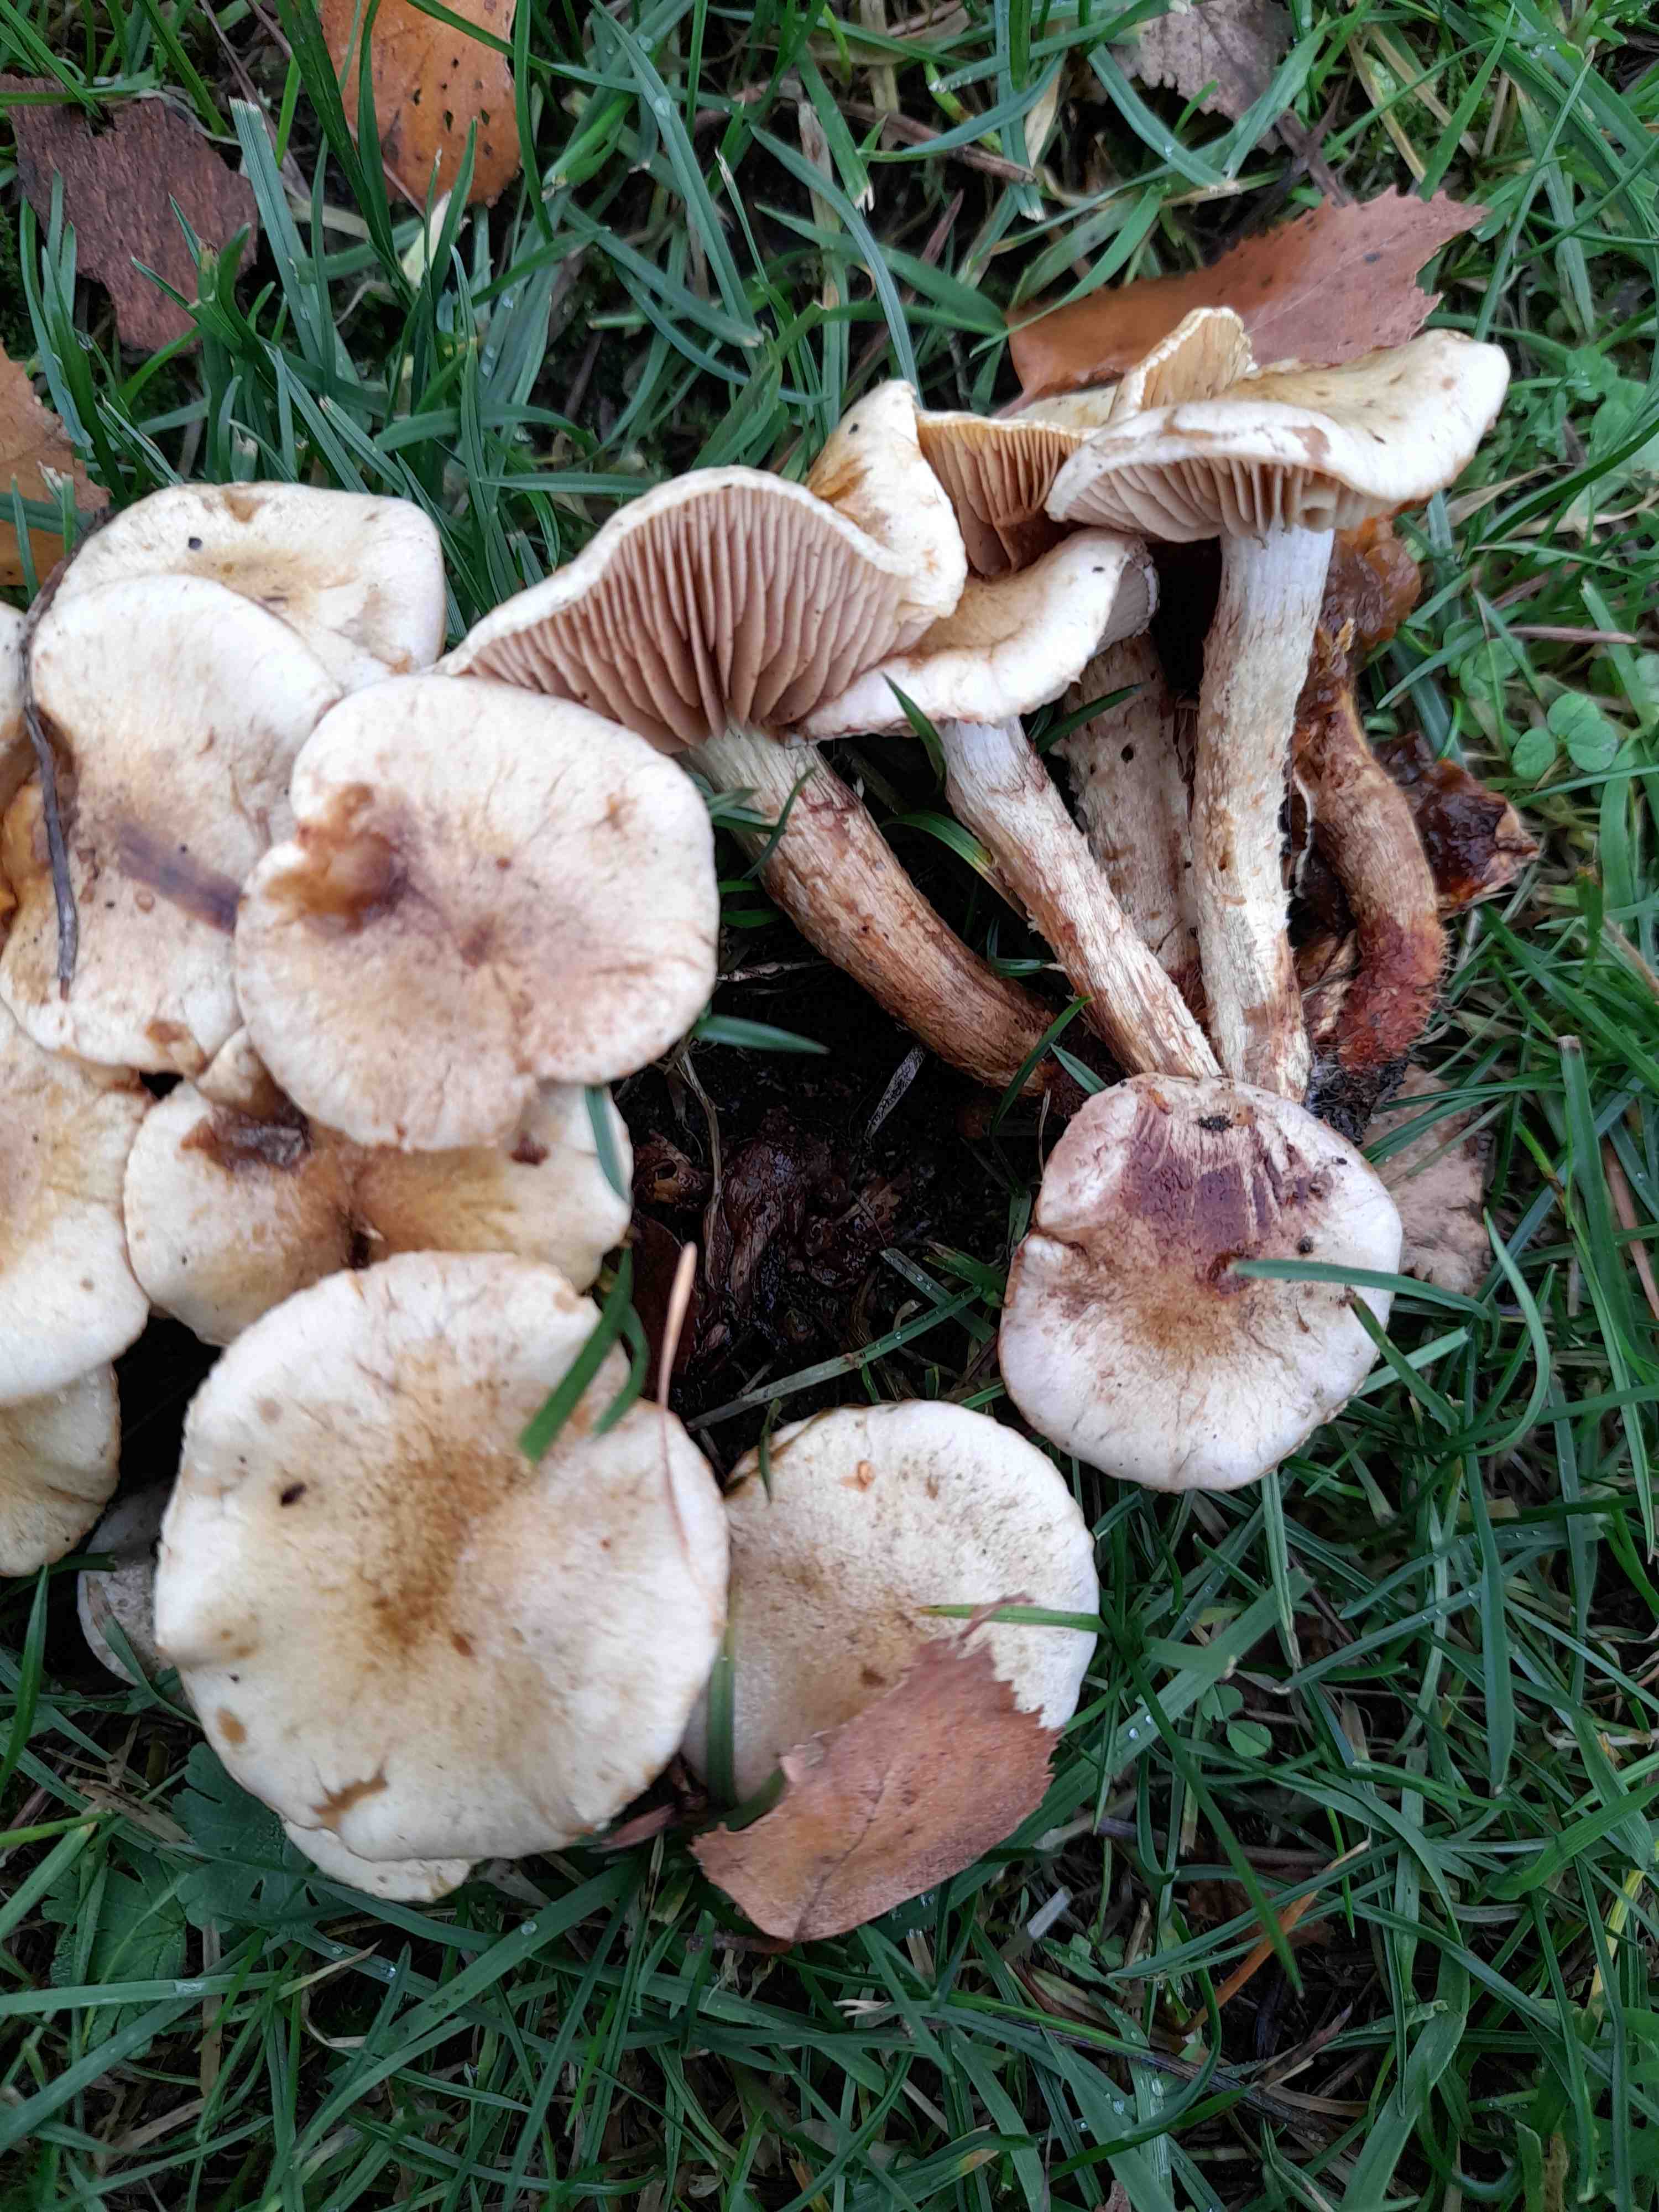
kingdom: Fungi
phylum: Basidiomycota
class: Agaricomycetes
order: Agaricales
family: Strophariaceae
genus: Pholiota
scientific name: Pholiota gummosa
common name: grøngul skælhat
